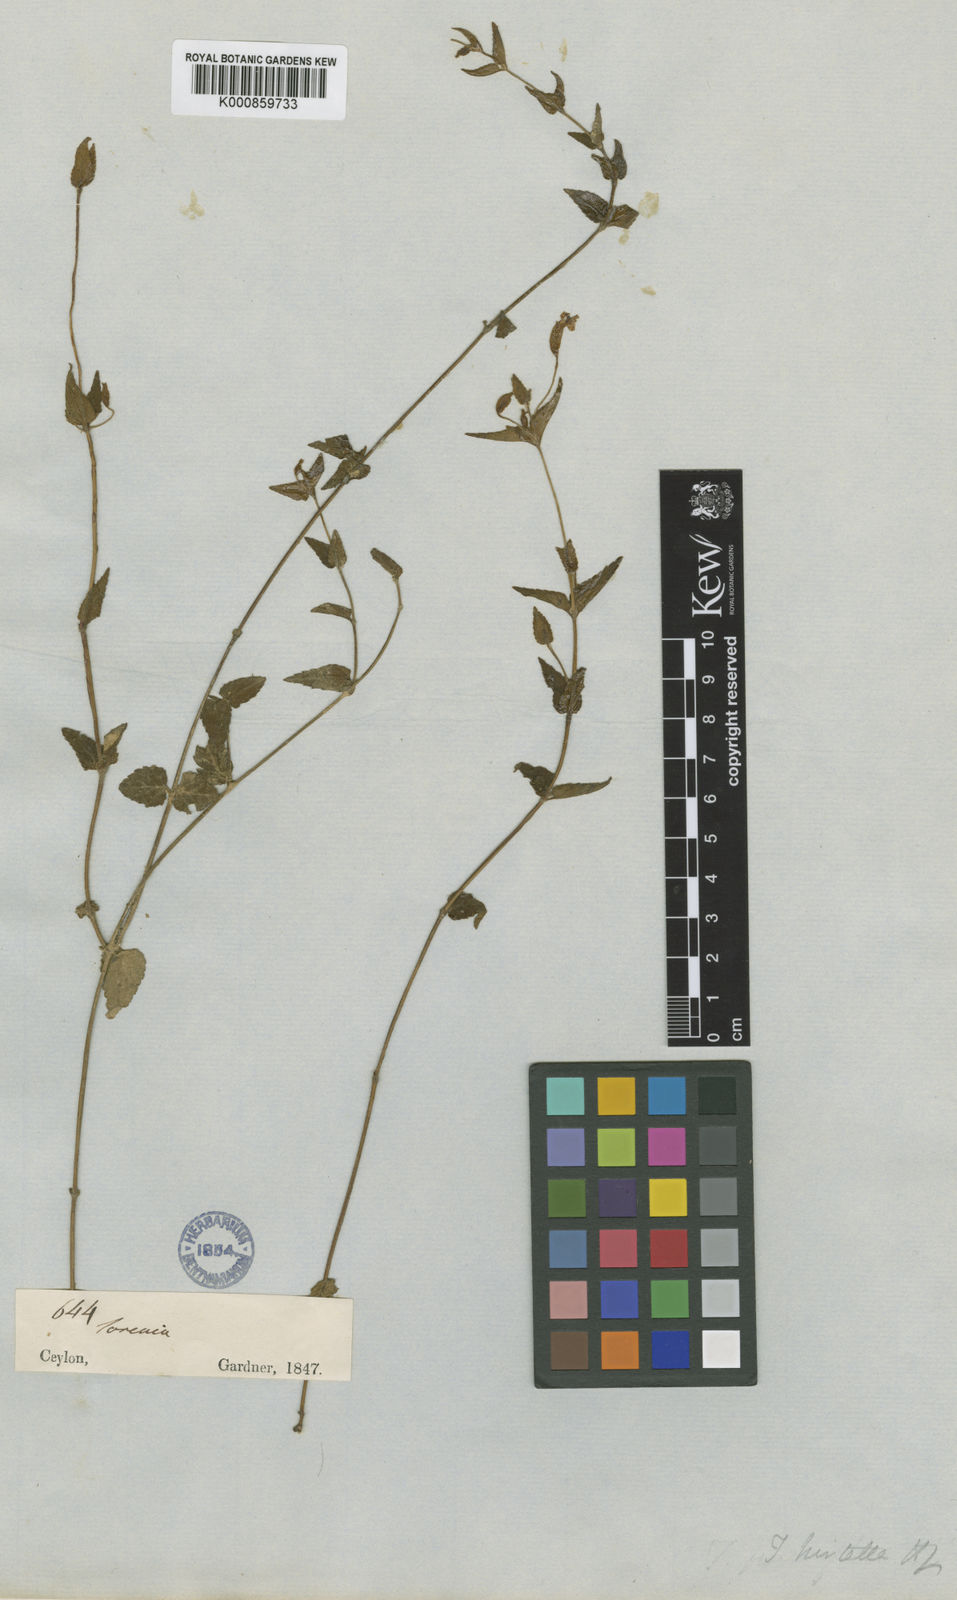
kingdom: Plantae
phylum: Tracheophyta
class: Magnoliopsida
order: Lamiales
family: Linderniaceae
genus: Torenia
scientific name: Torenia diffusa
